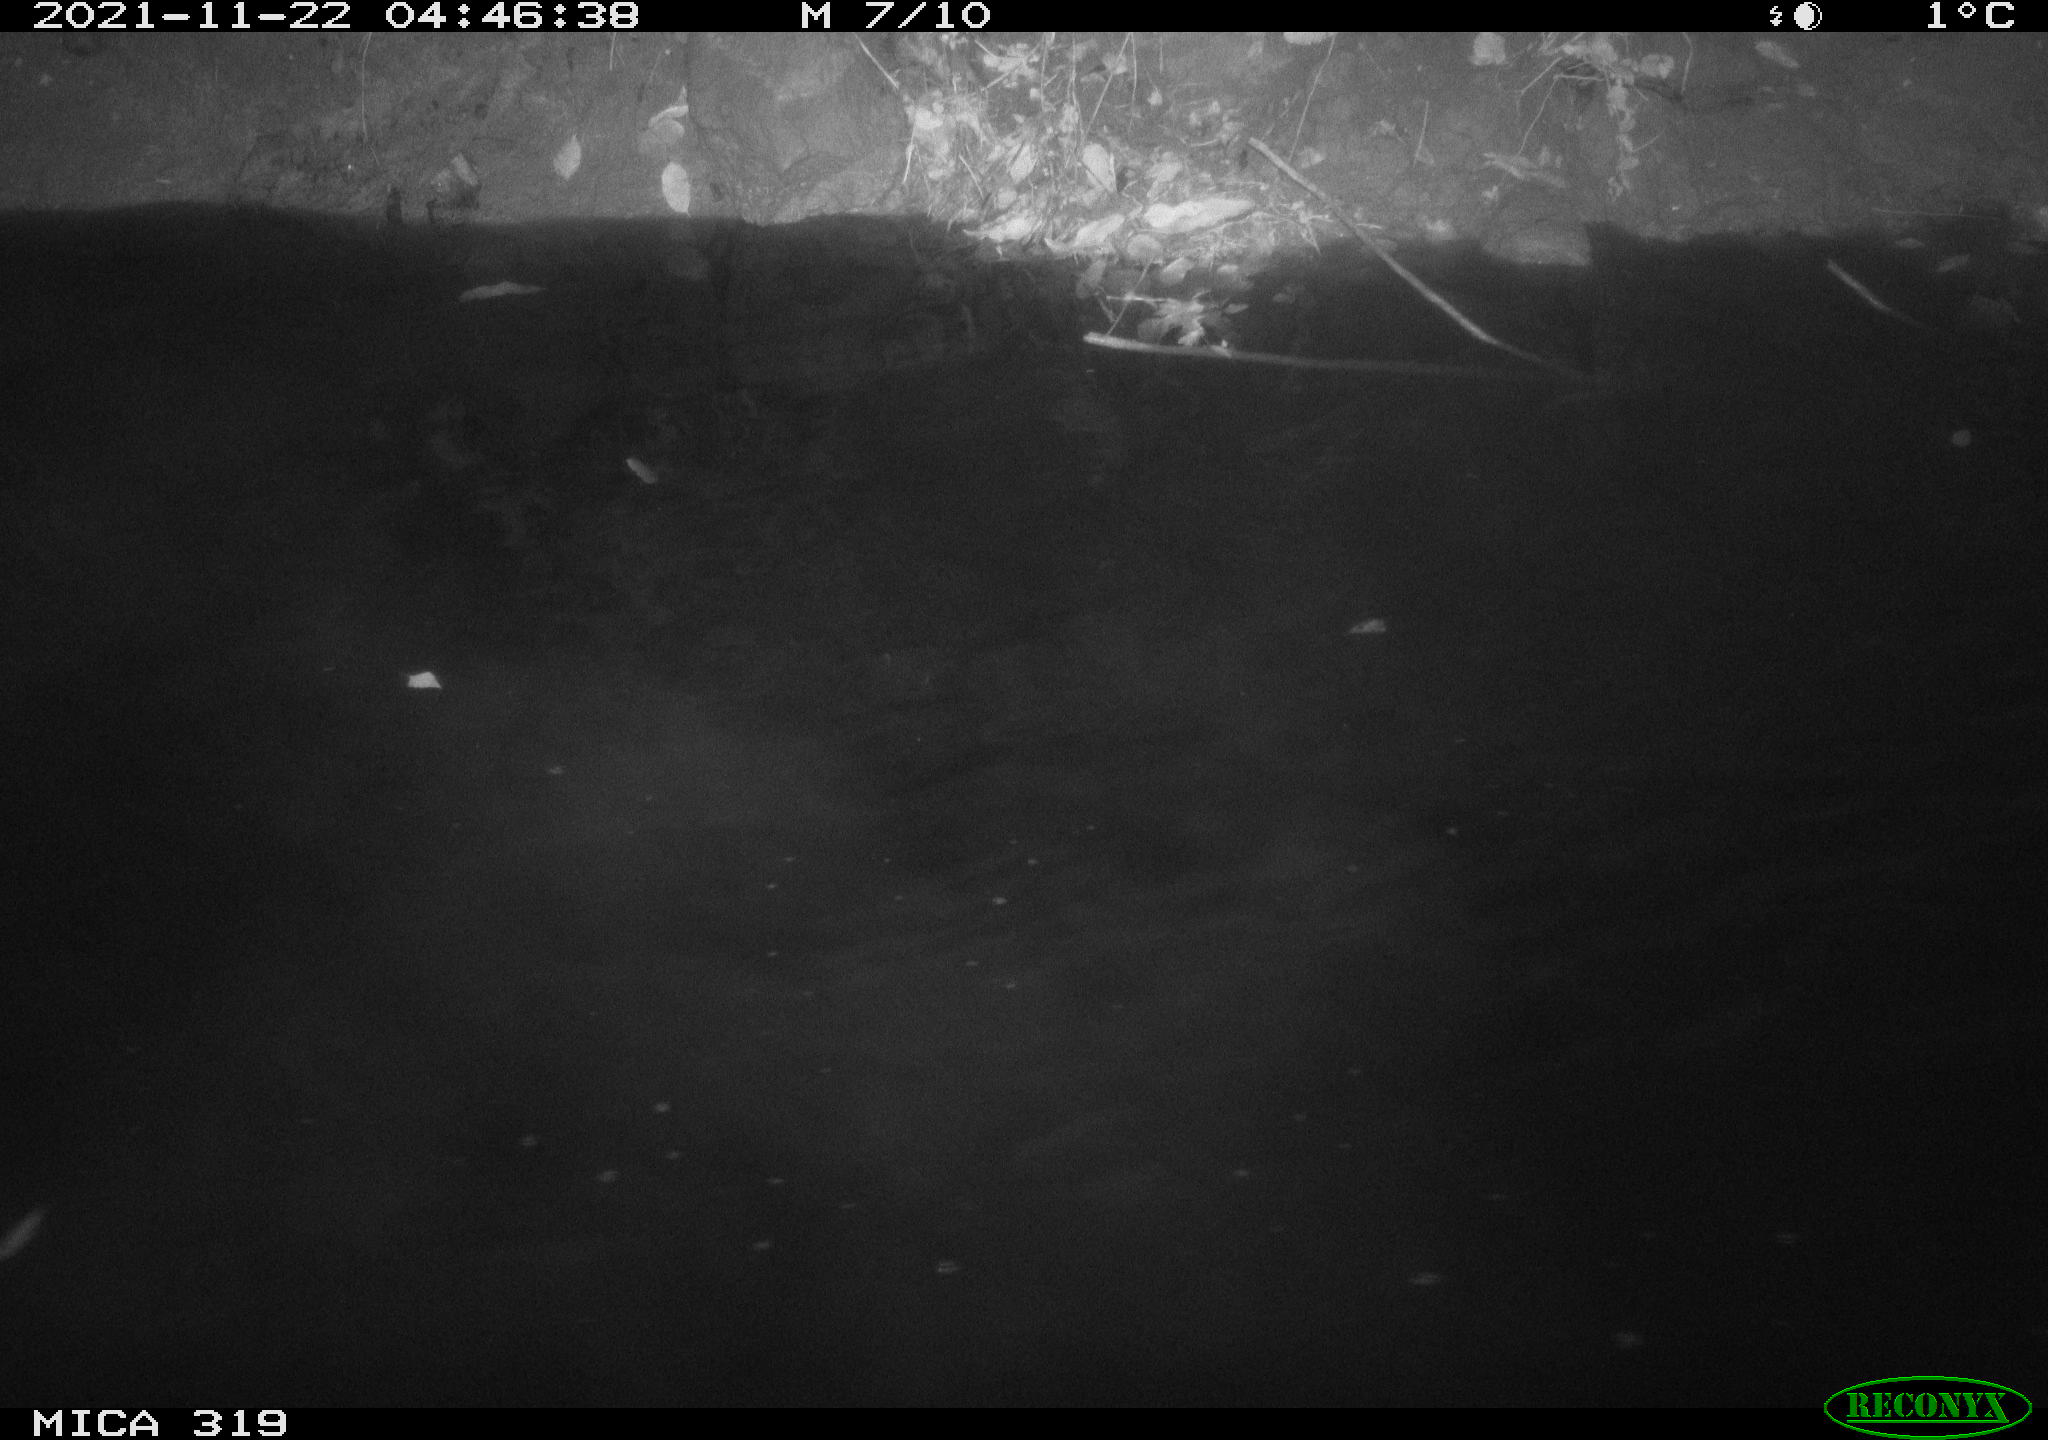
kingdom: Animalia
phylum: Chordata
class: Aves
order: Anseriformes
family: Anatidae
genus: Anas
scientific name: Anas platyrhynchos
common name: Mallard
